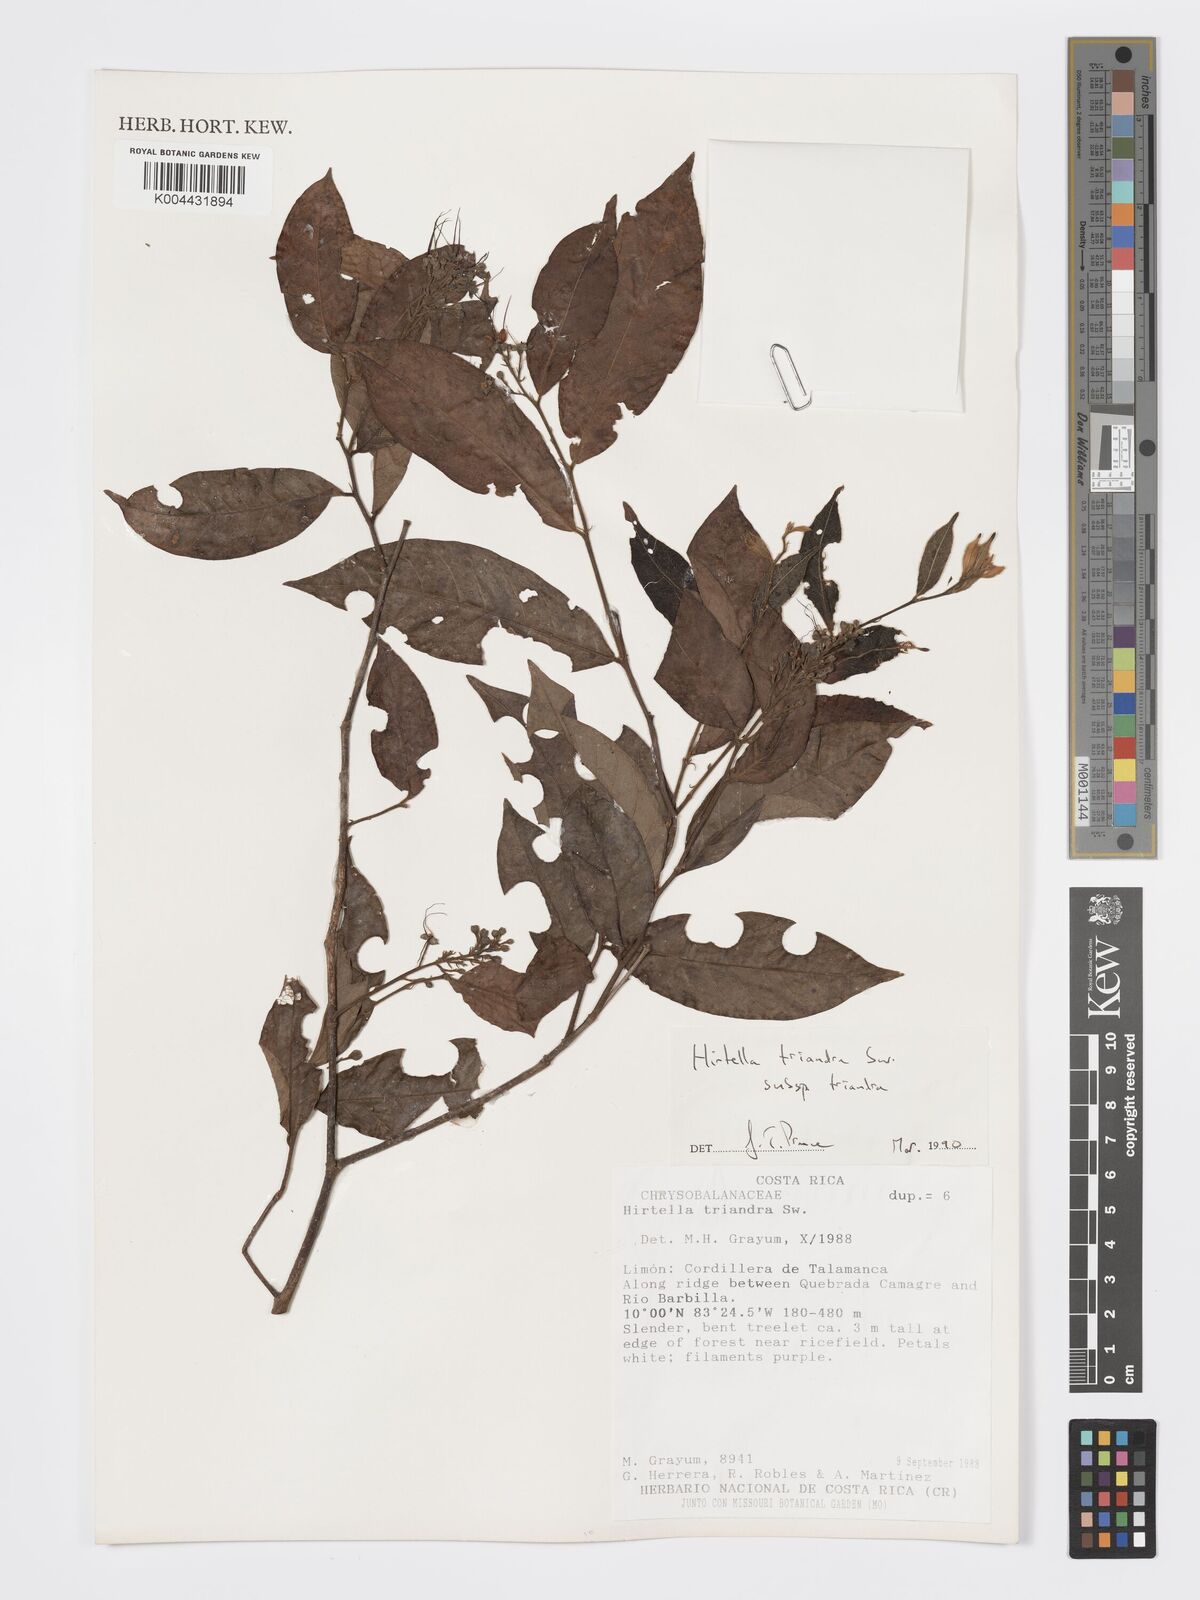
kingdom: Plantae
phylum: Tracheophyta
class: Magnoliopsida
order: Malpighiales
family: Chrysobalanaceae
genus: Hirtella
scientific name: Hirtella triandra
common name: Hairy plum
